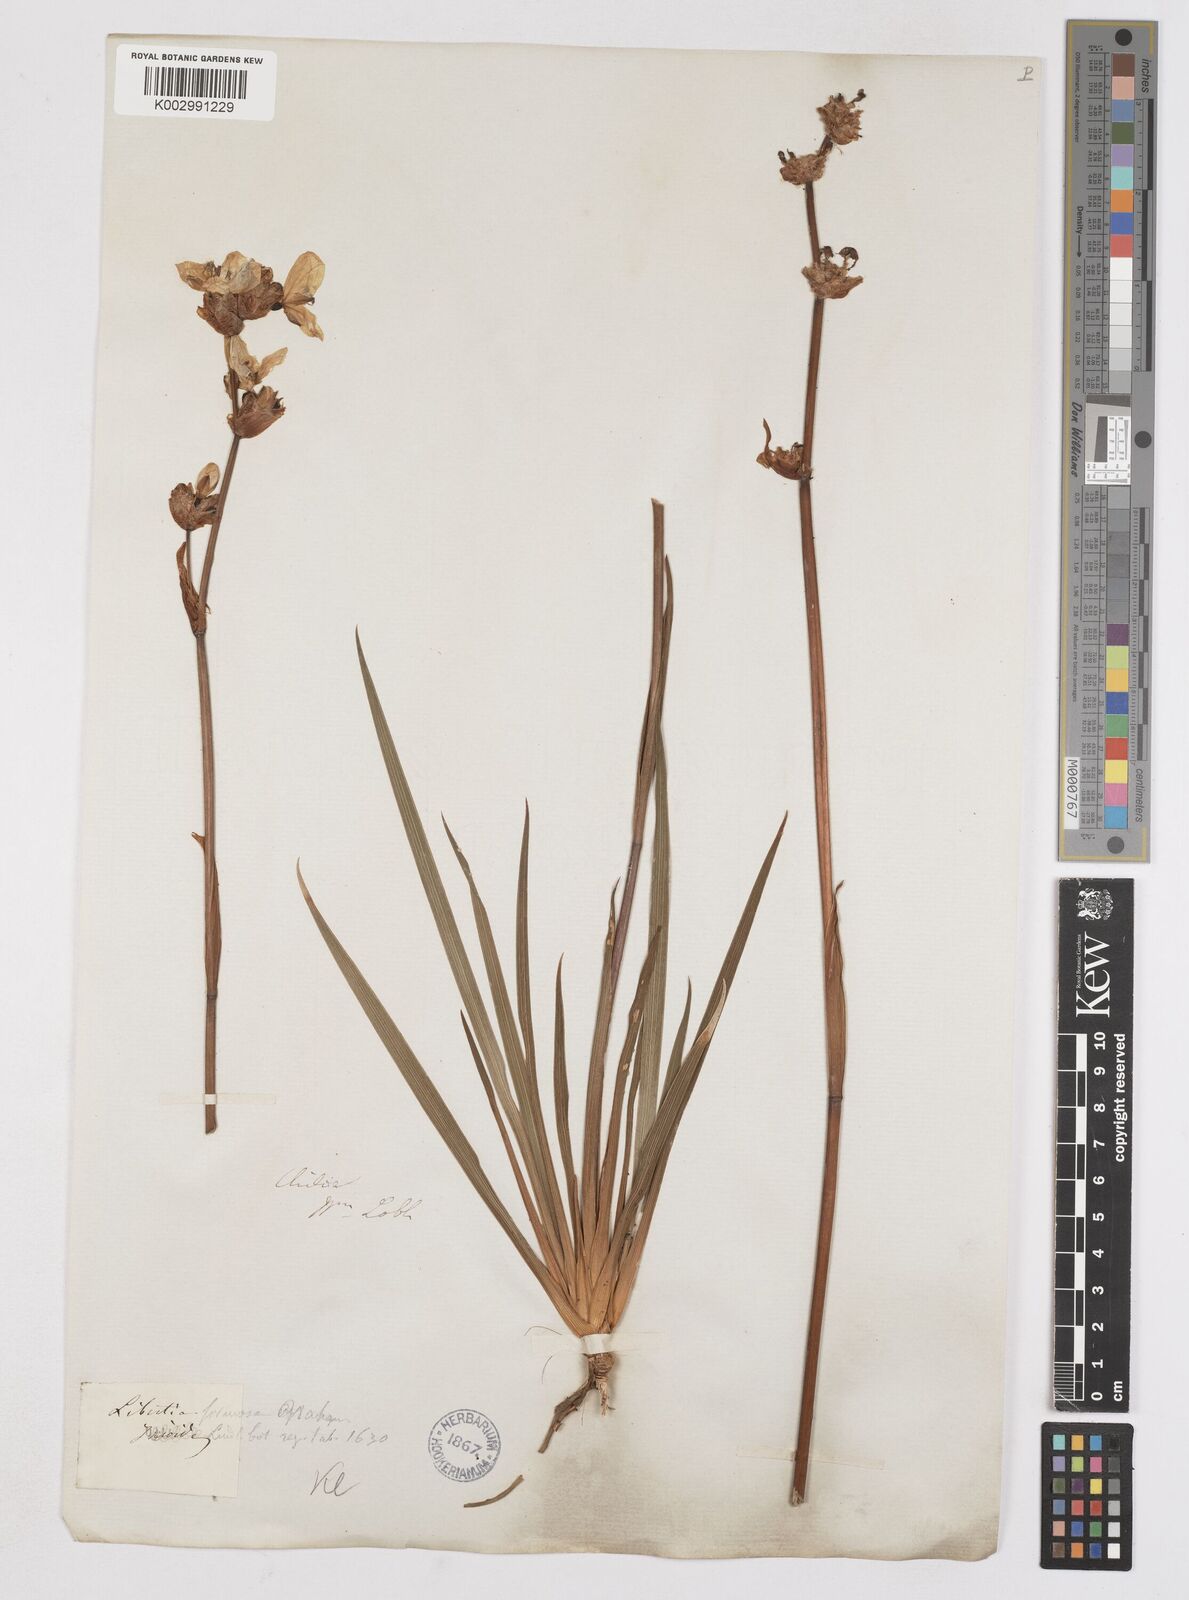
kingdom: Plantae
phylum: Tracheophyta
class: Liliopsida
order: Asparagales
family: Iridaceae
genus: Libertia
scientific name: Libertia chilensis
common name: Satin flower
